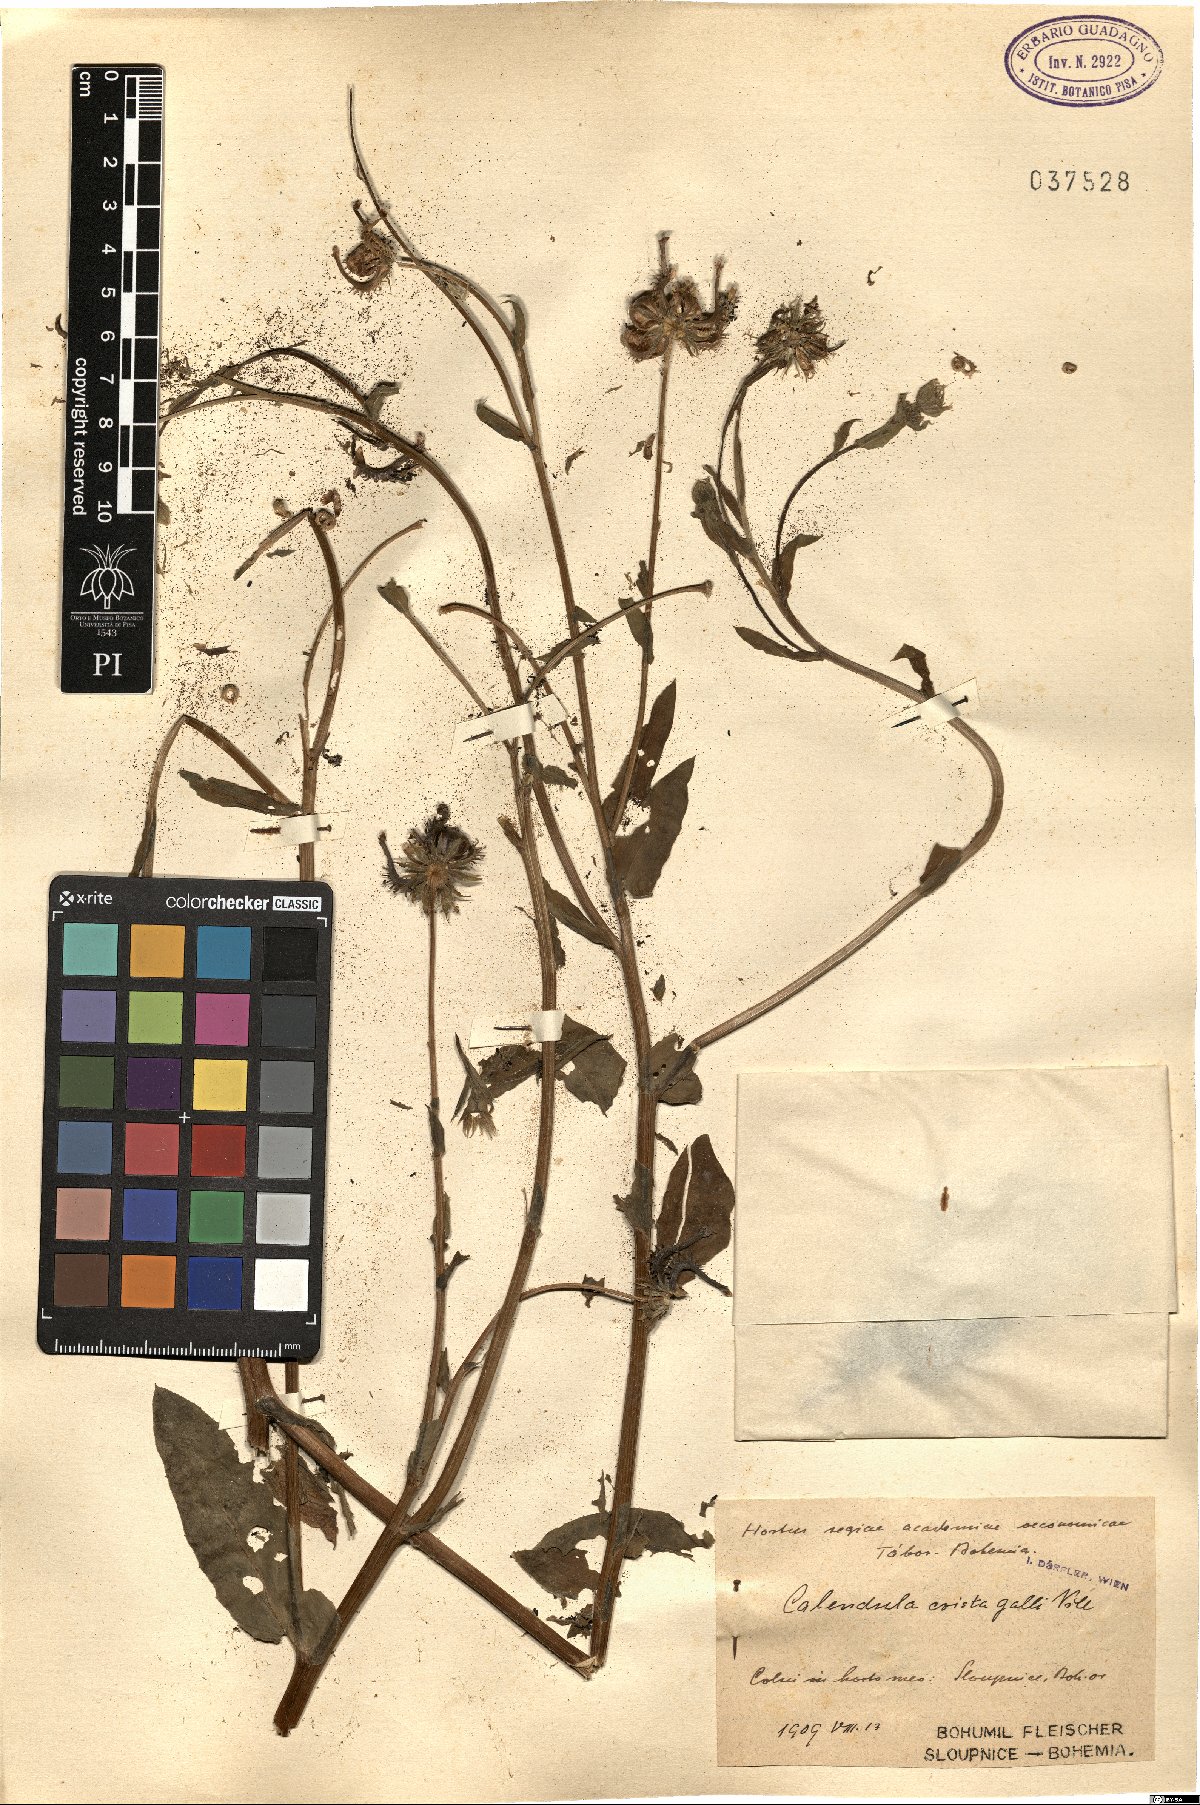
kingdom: Plantae
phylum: Tracheophyta
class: Magnoliopsida
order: Asterales
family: Asteraceae
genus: Calendula
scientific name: Calendula arvensis
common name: Field marigold
